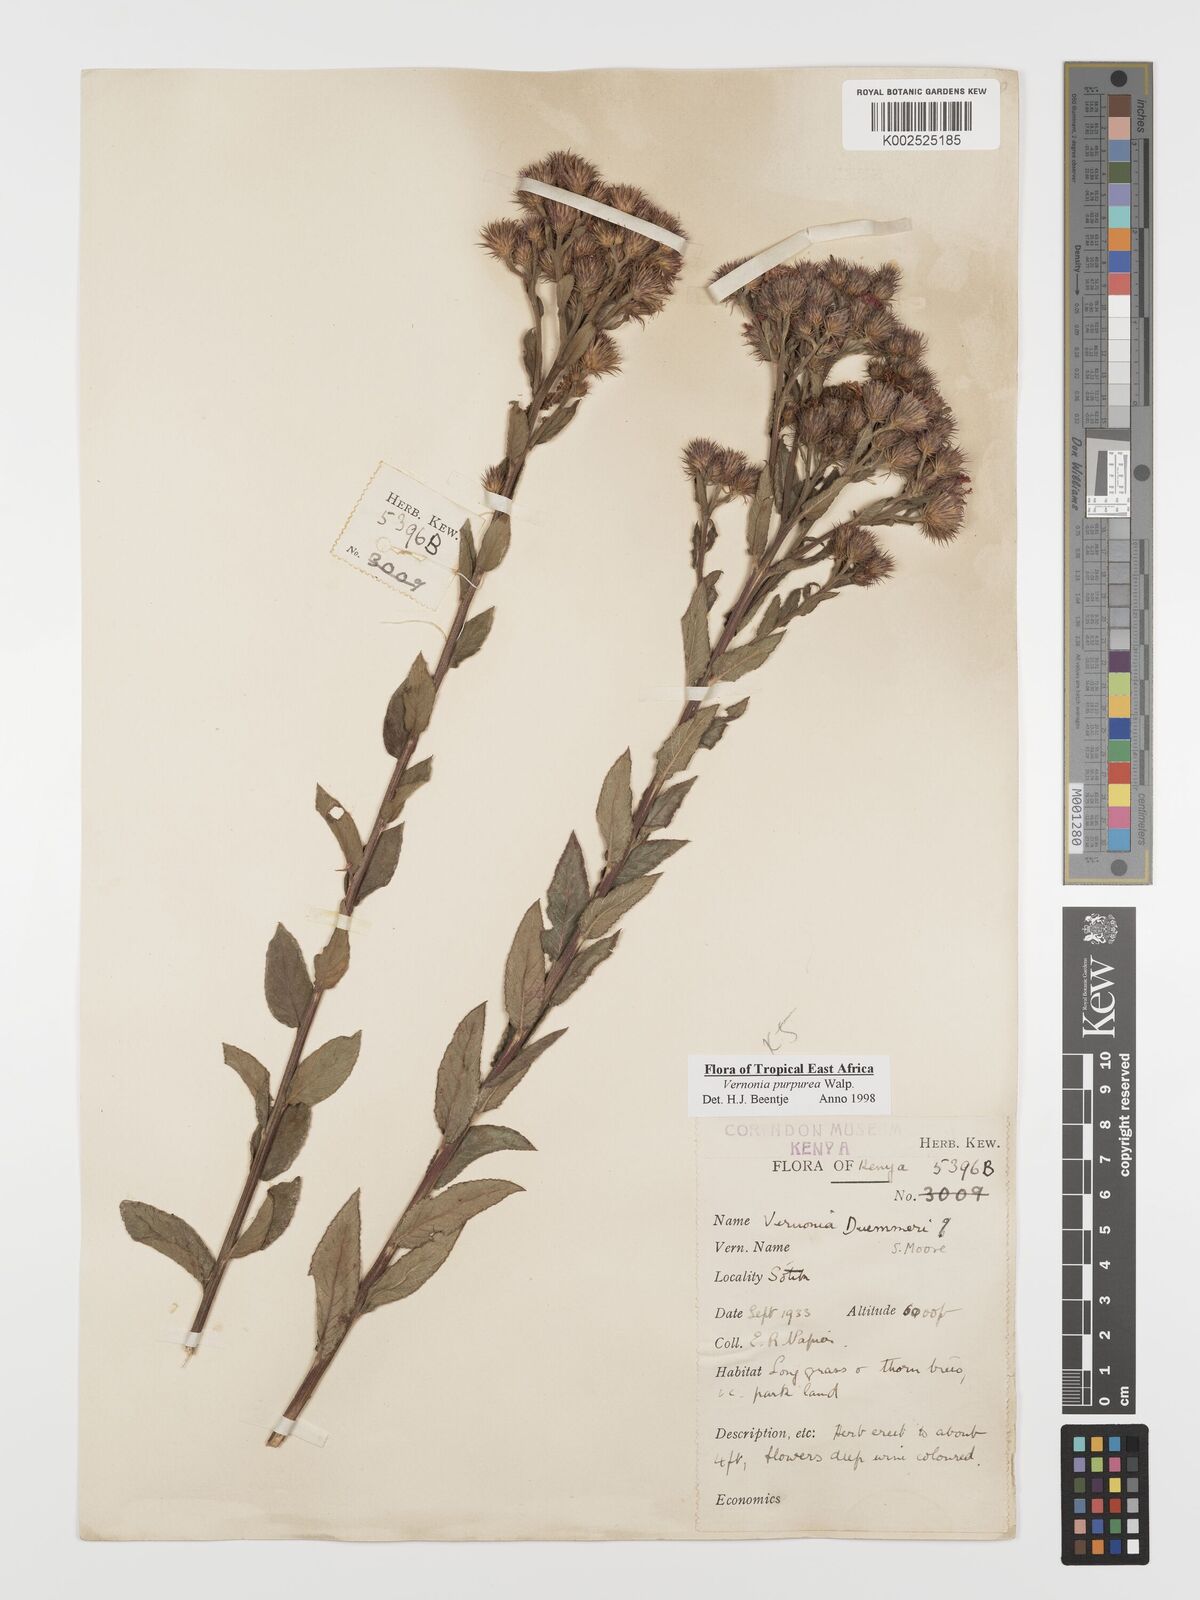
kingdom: Plantae
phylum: Tracheophyta
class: Magnoliopsida
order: Asterales
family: Asteraceae
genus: Nothovernonia
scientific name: Nothovernonia purpurea
